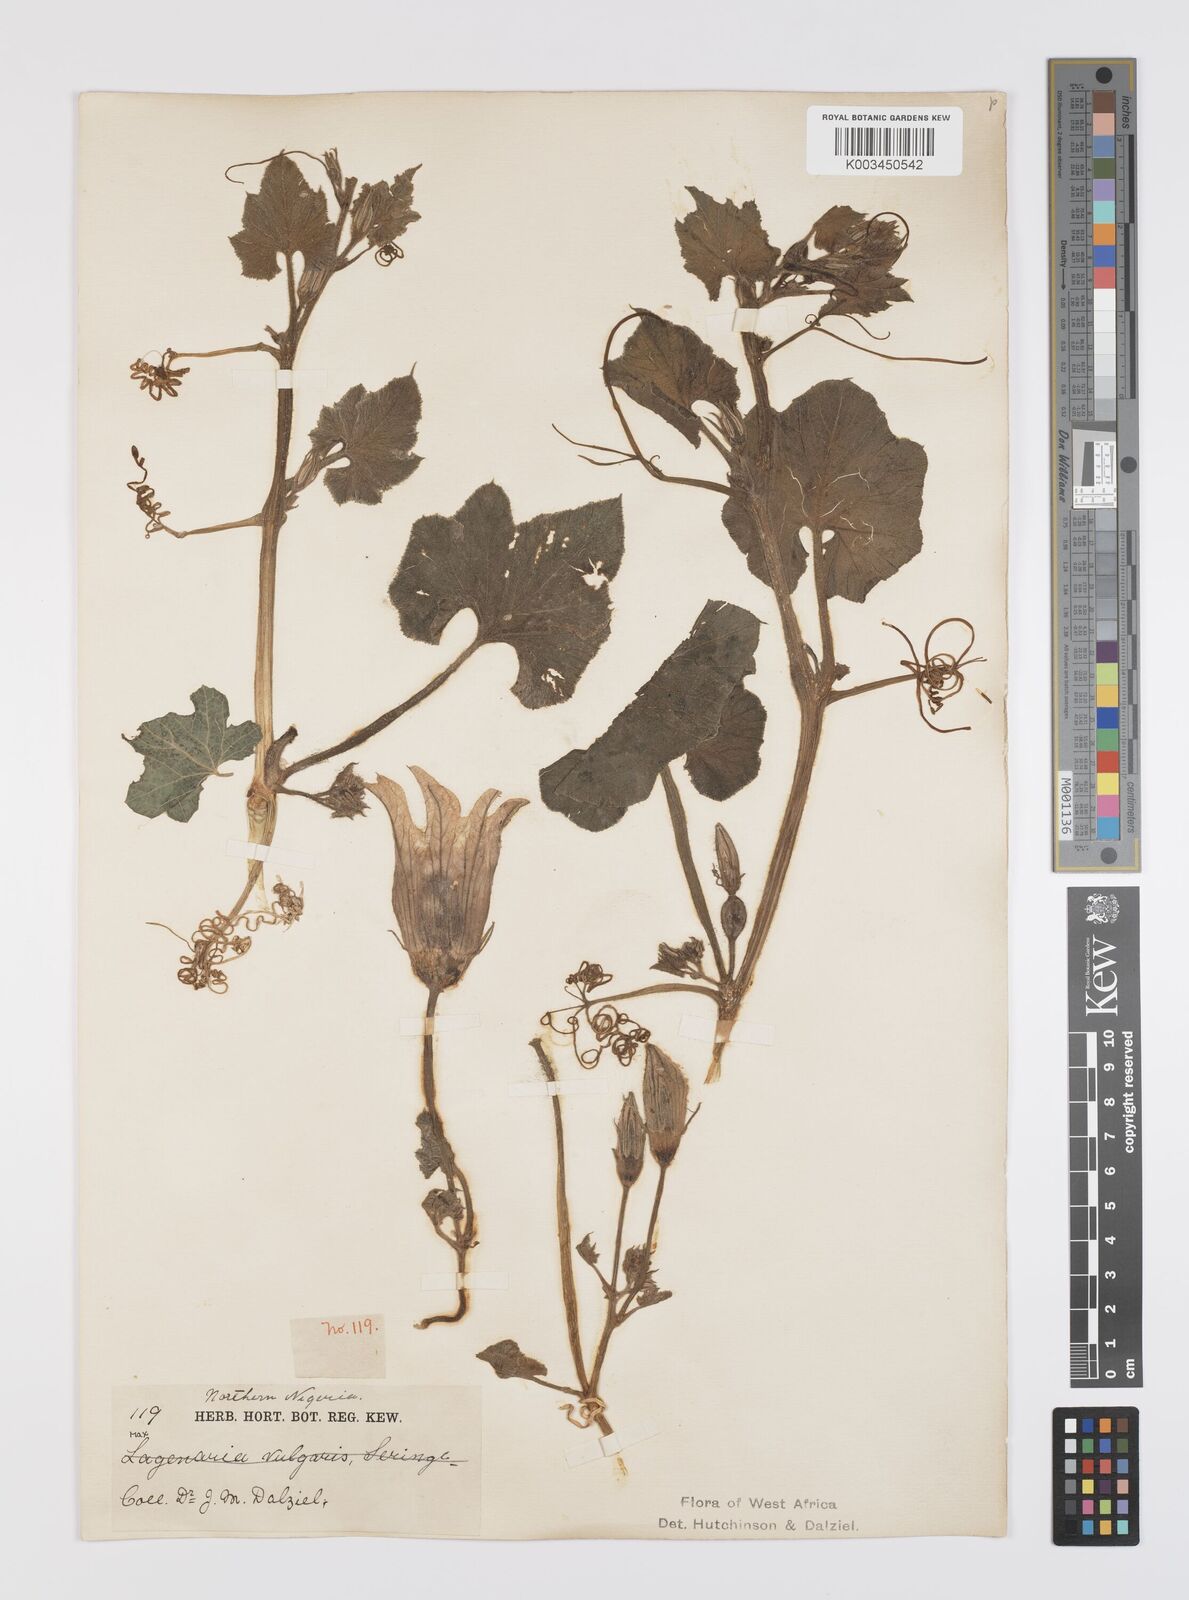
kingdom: Plantae
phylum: Tracheophyta
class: Magnoliopsida
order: Cucurbitales
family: Cucurbitaceae
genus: Lagenaria
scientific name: Lagenaria siceraria
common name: Bottle gourd
